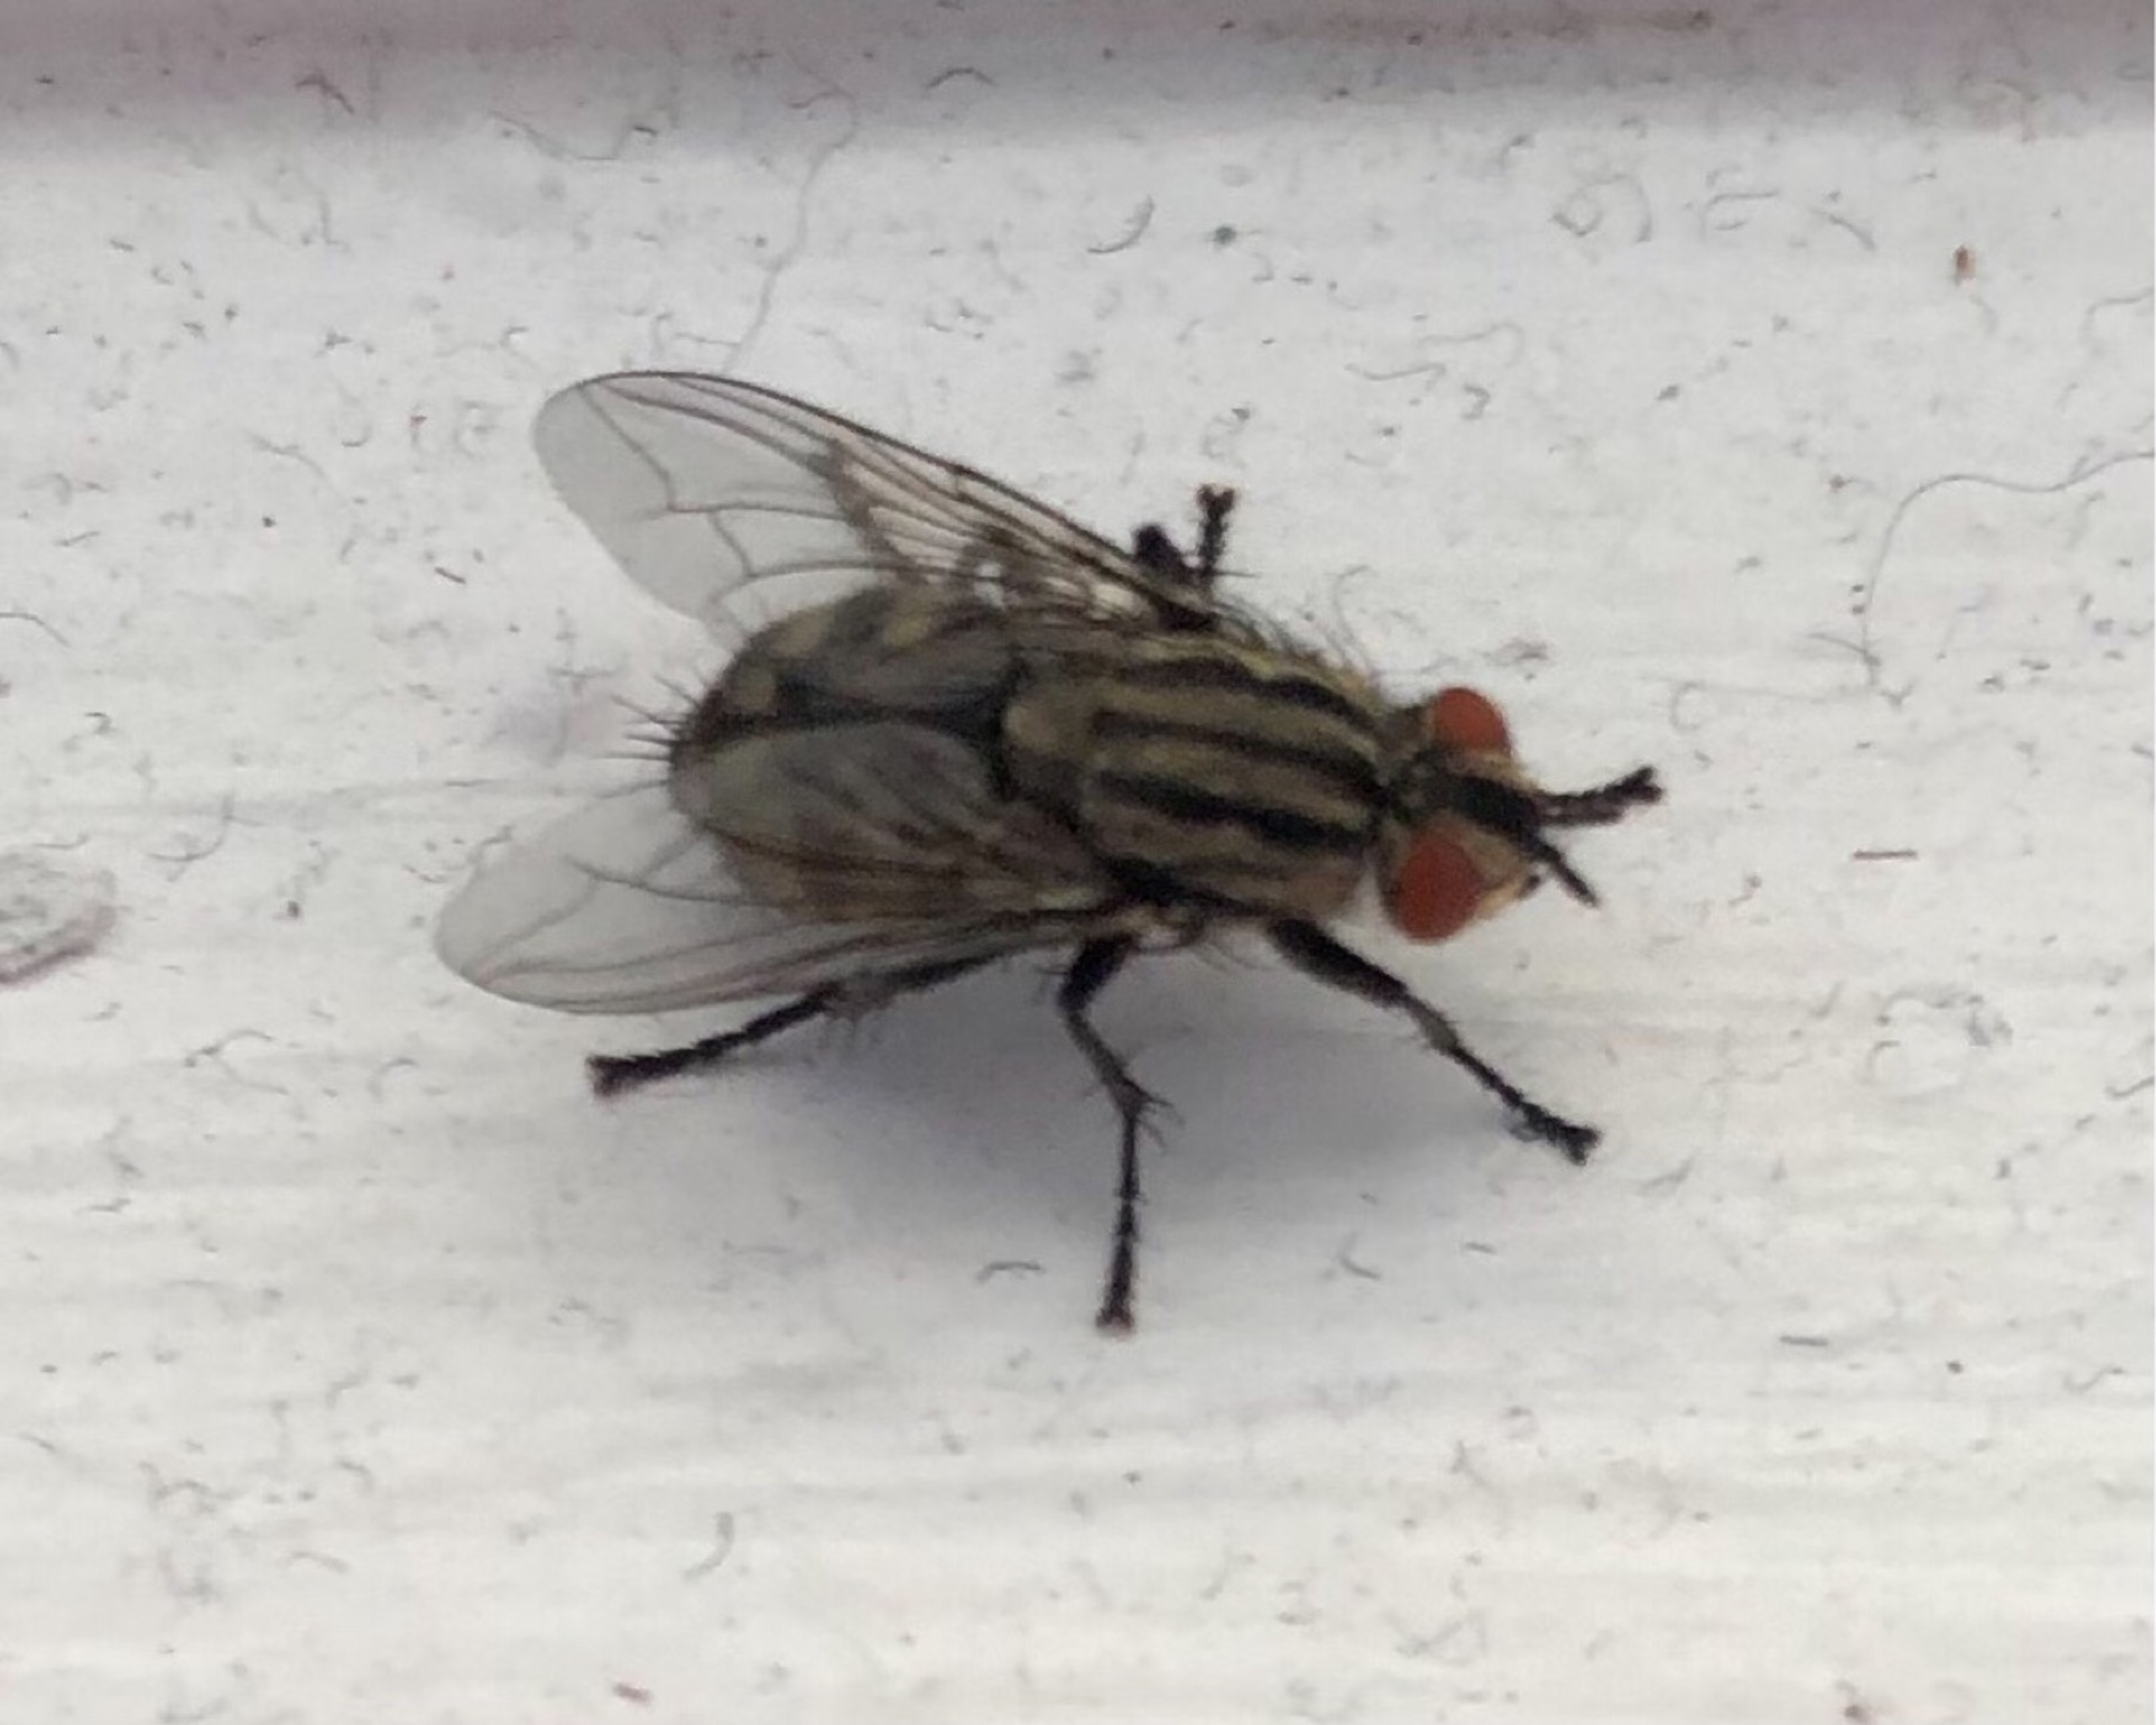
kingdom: Animalia
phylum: Arthropoda
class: Insecta
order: Diptera
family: Sarcophagidae
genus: Sarcophaga
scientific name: Sarcophaga
